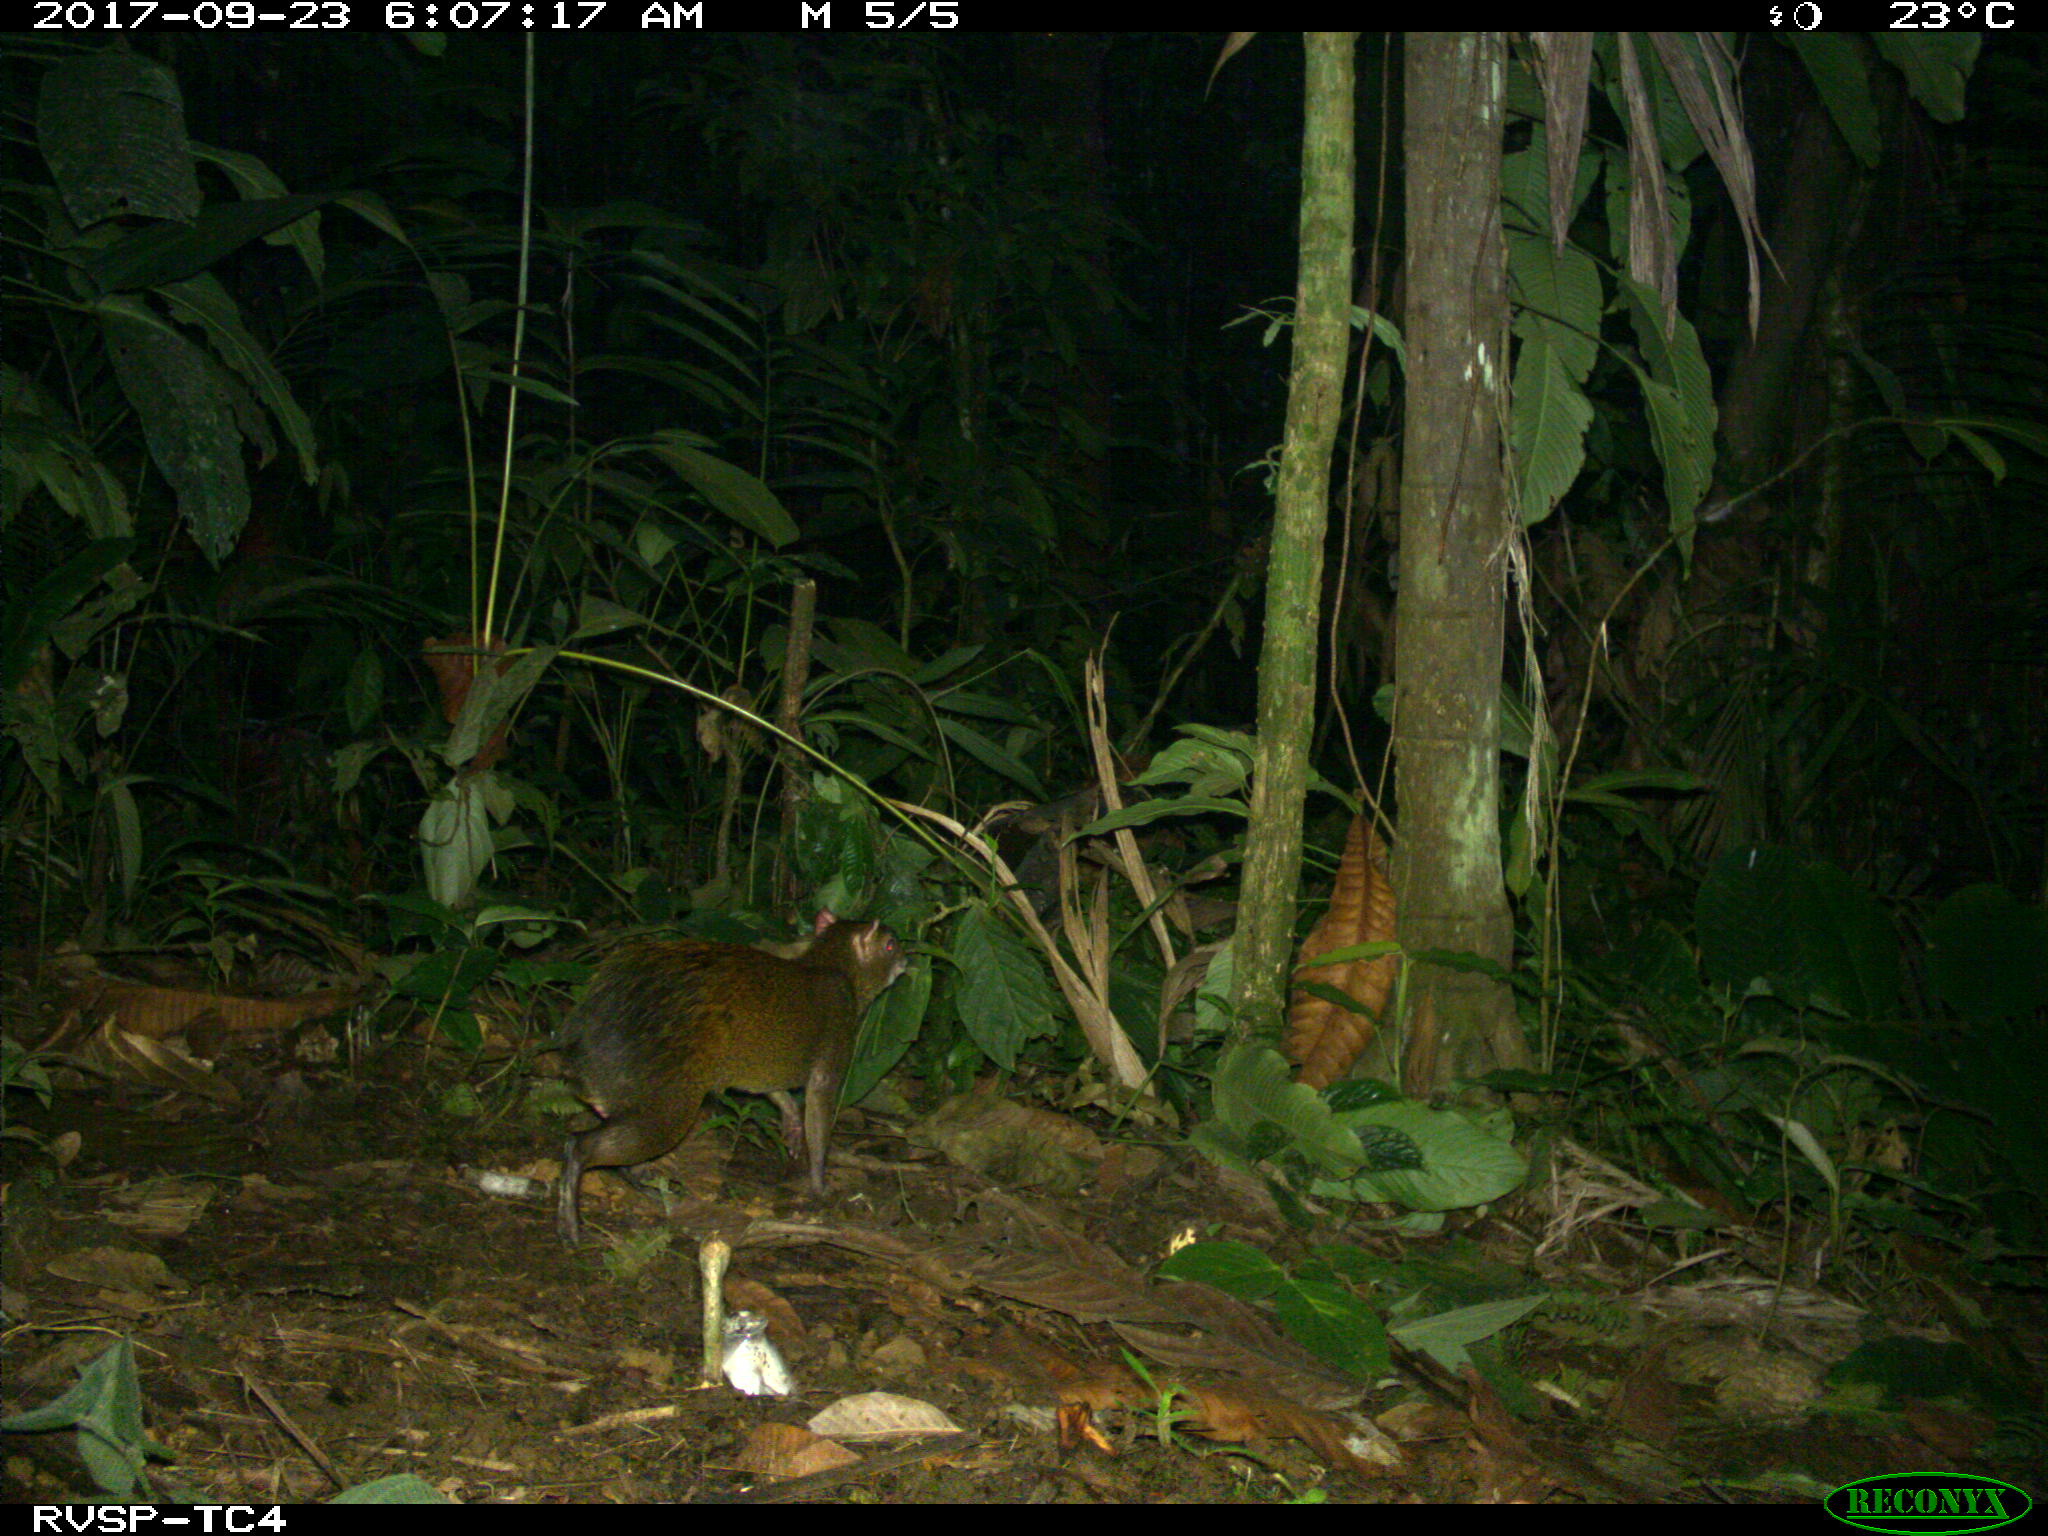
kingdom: Animalia
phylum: Chordata
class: Mammalia
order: Rodentia
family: Dasyproctidae
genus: Dasyprocta
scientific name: Dasyprocta punctata
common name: Central american agouti
